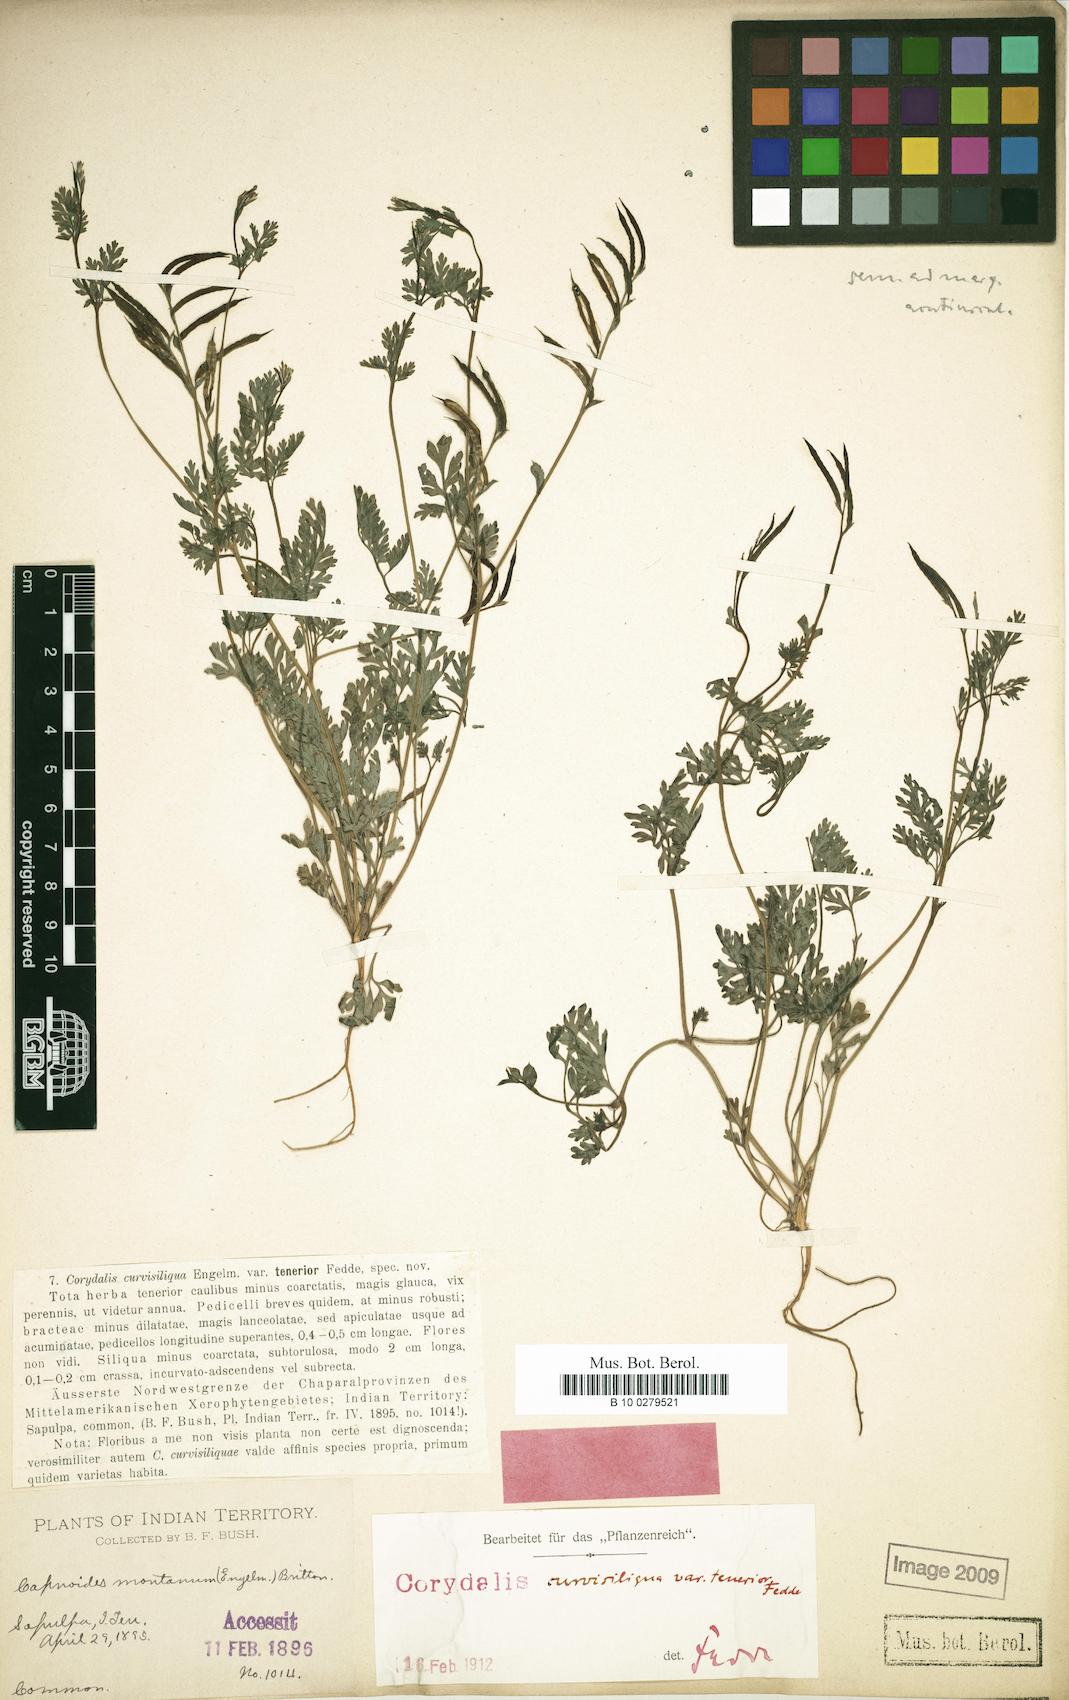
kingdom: Plantae
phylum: Tracheophyta
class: Magnoliopsida
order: Ranunculales
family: Papaveraceae
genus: Corydalis
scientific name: Corydalis micrantha
